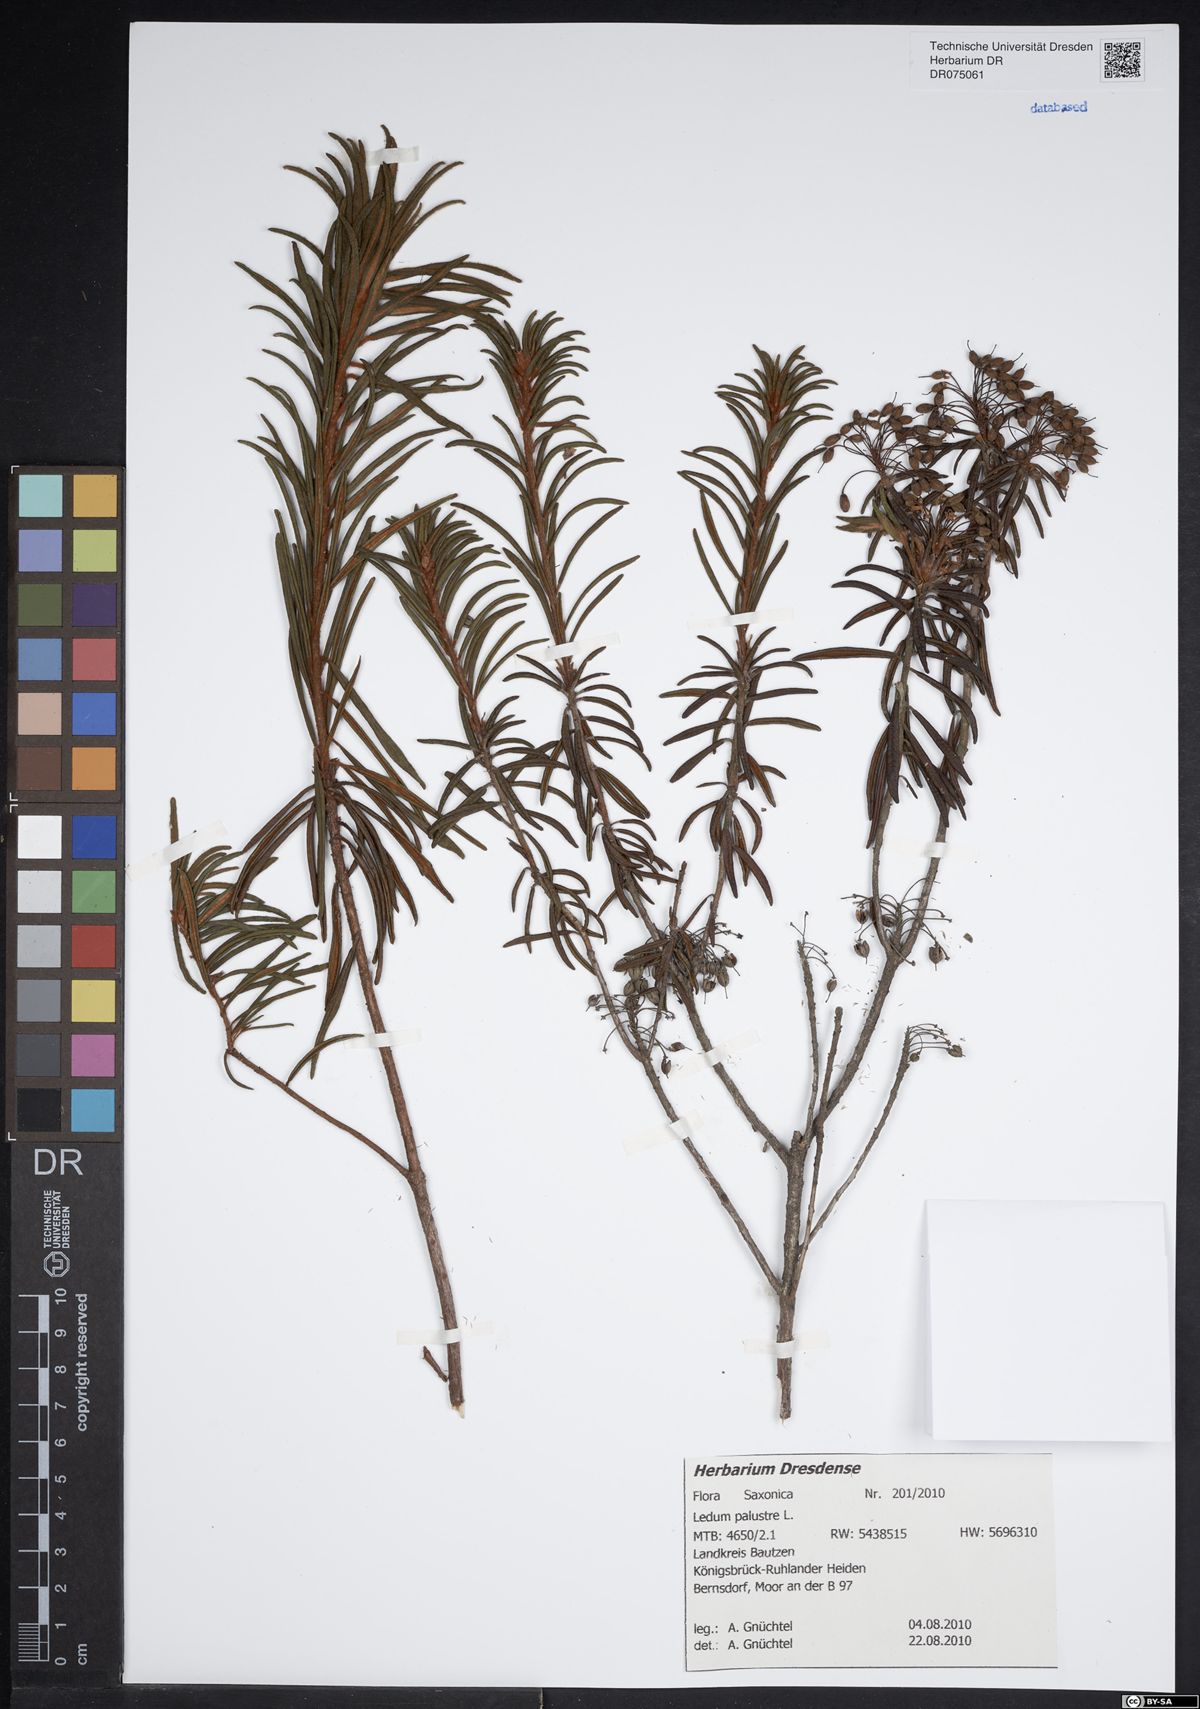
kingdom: Plantae
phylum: Tracheophyta
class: Magnoliopsida
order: Ericales
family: Ericaceae
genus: Rhododendron
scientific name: Rhododendron tomentosum
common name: Marsh labrador tea
